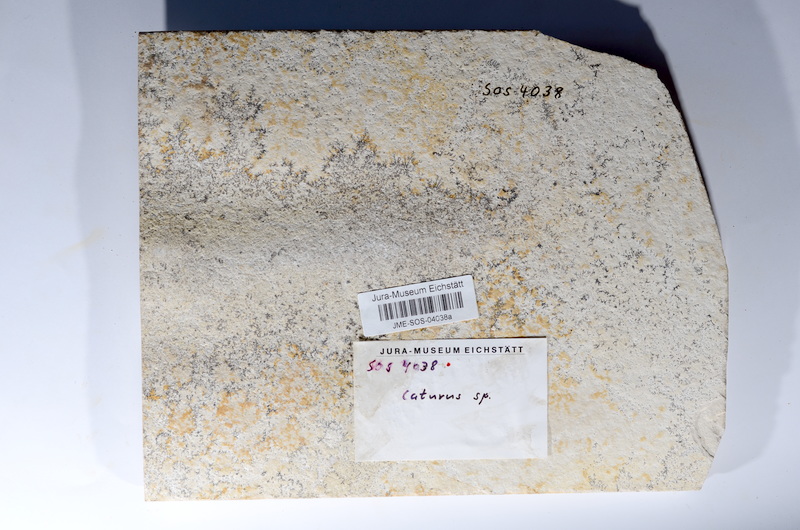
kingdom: Animalia
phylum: Chordata
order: Amiiformes
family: Caturidae
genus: Caturus
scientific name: Caturus
